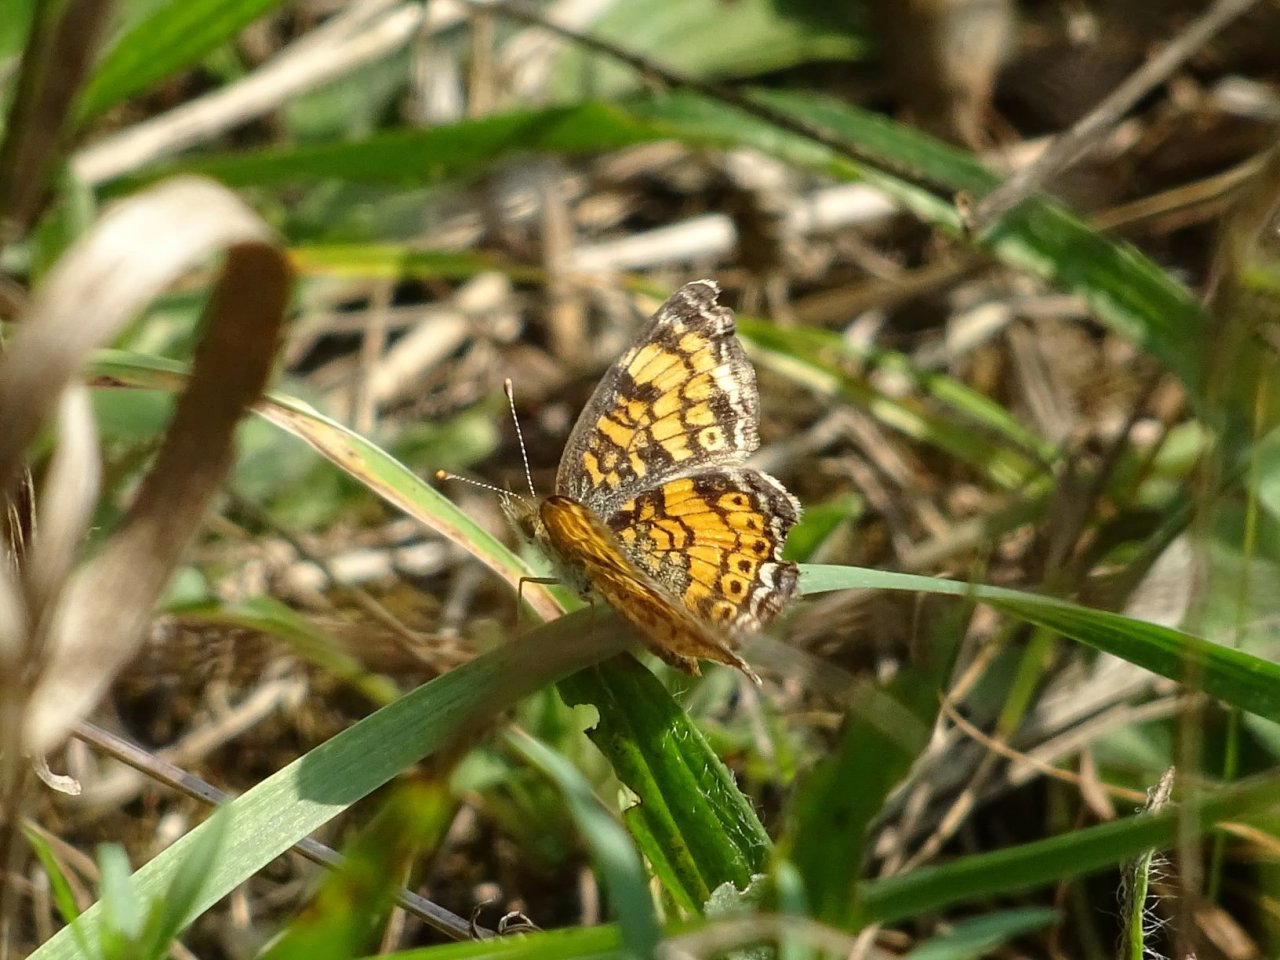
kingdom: Animalia
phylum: Arthropoda
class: Insecta
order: Lepidoptera
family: Nymphalidae
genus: Phyciodes
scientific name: Phyciodes tharos
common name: Northern Crescent
